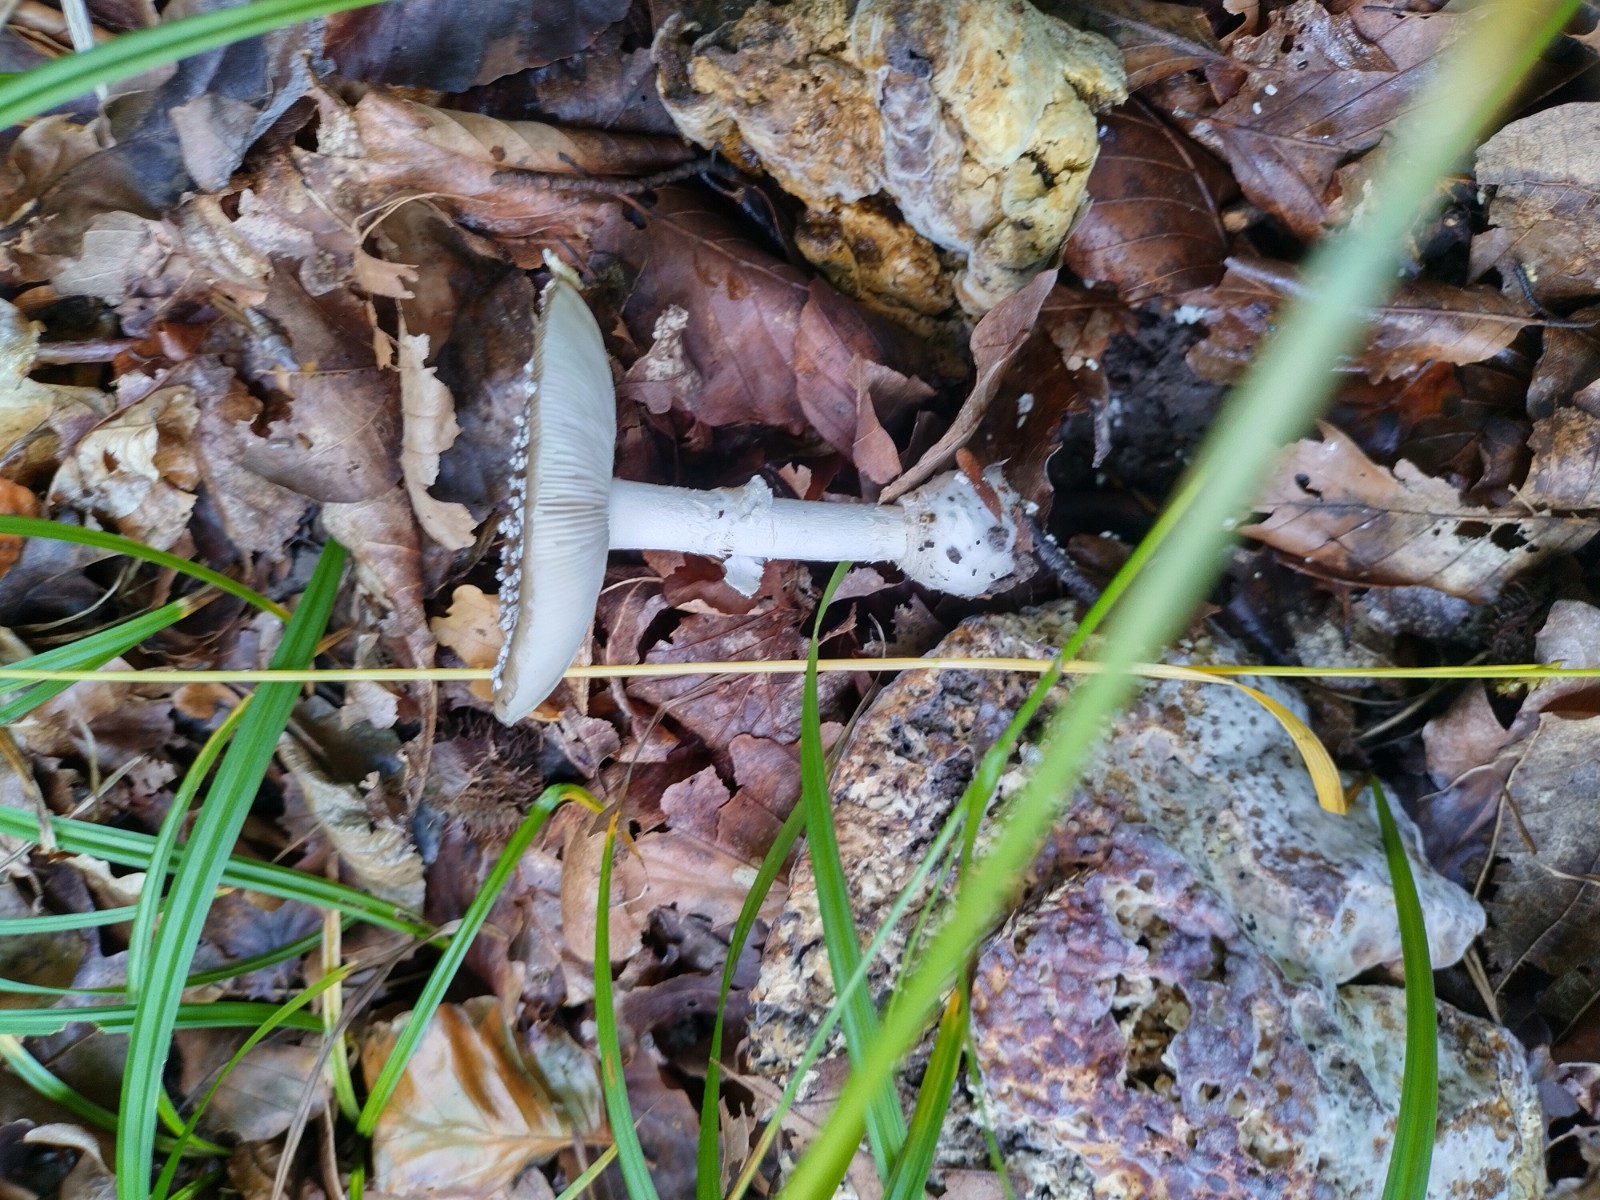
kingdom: Fungi
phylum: Basidiomycota
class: Agaricomycetes
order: Agaricales
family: Amanitaceae
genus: Amanita
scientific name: Amanita pantherina
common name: panter-fluesvamp
